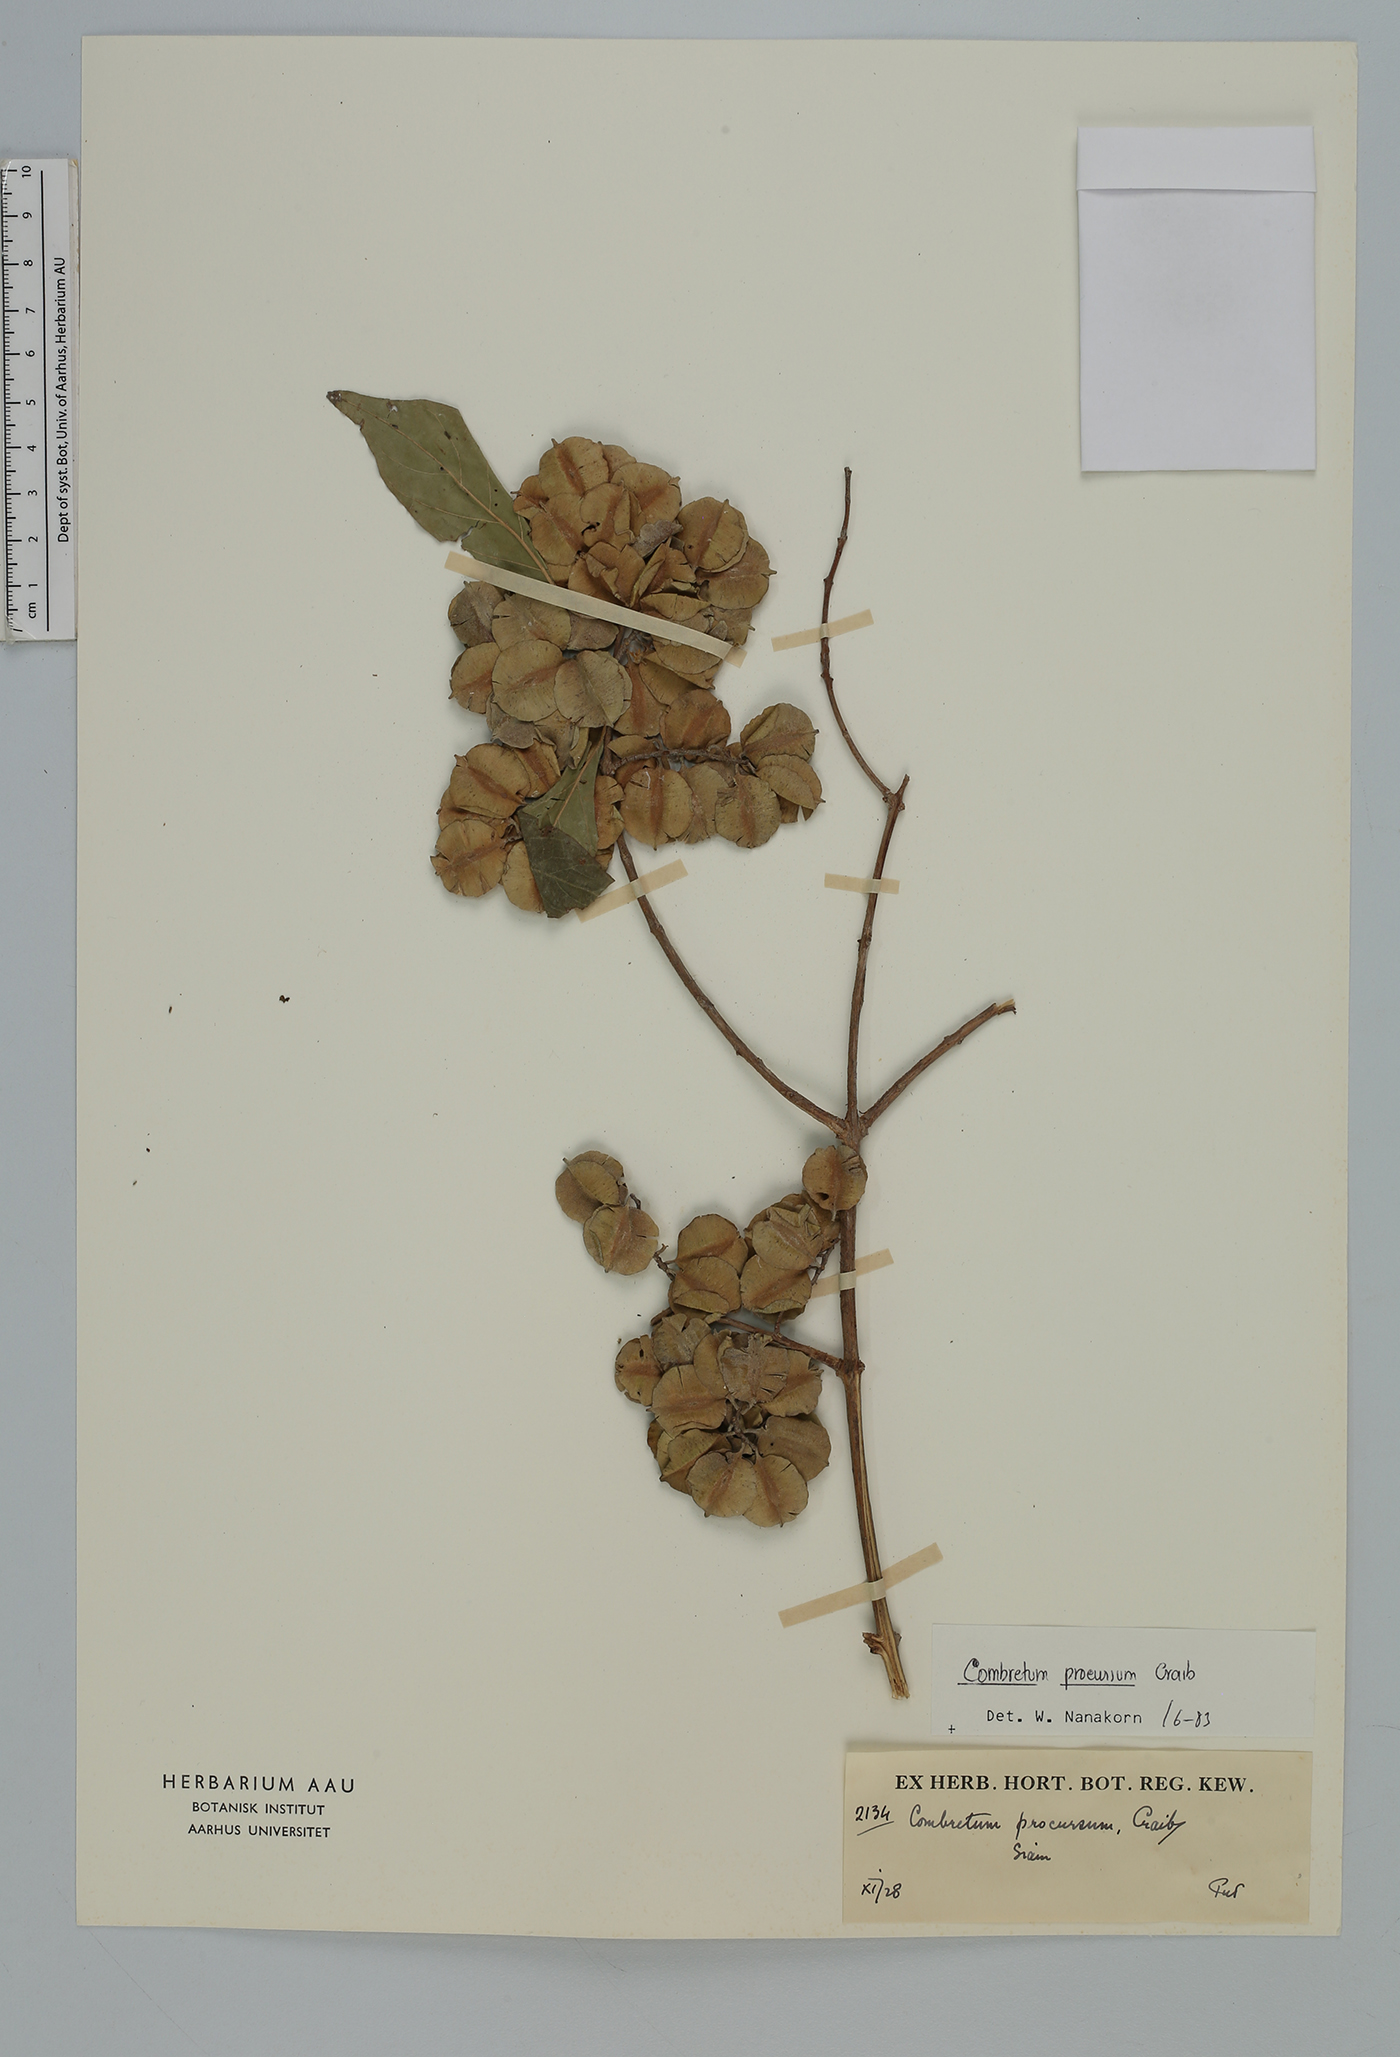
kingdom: Plantae
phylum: Tracheophyta
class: Magnoliopsida
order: Myrtales
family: Combretaceae
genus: Combretum
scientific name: Combretum procursum
